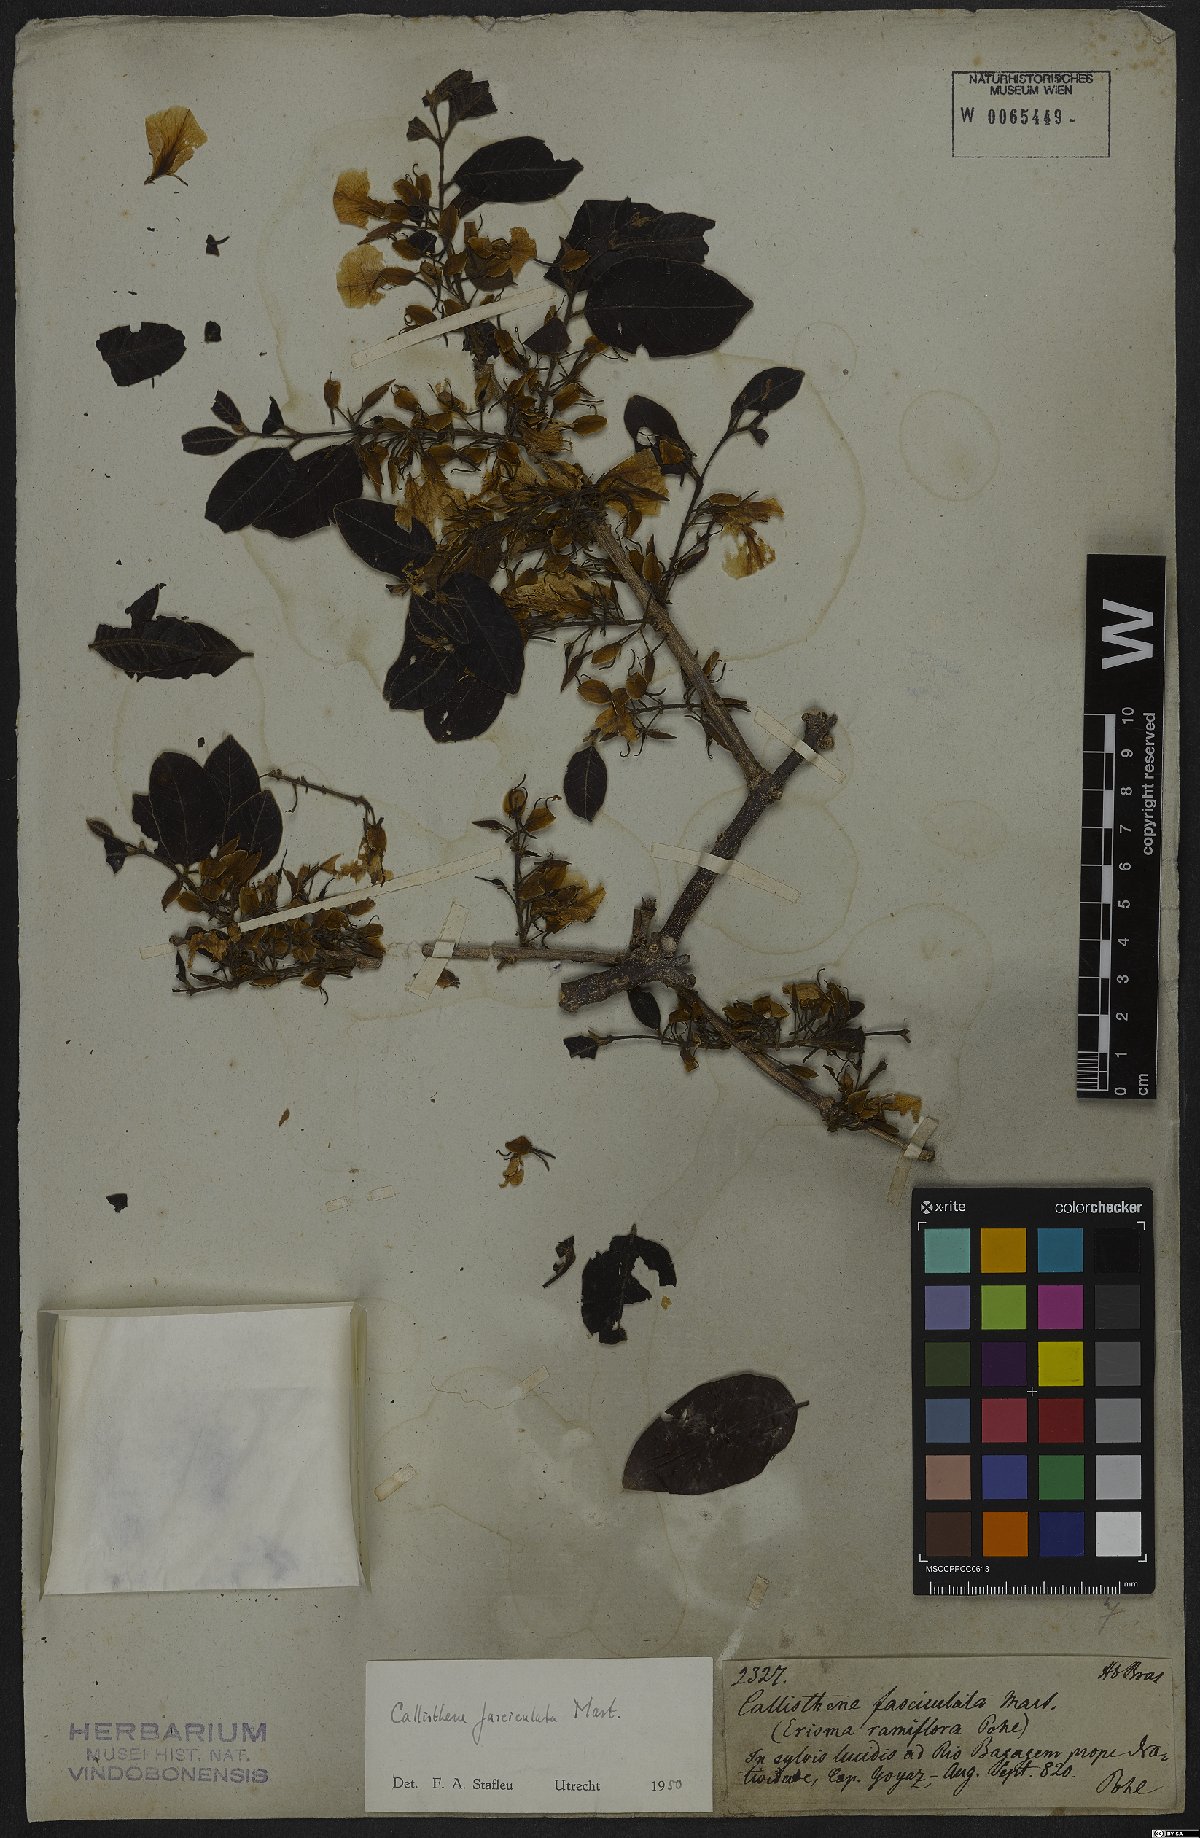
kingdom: Plantae
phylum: Tracheophyta
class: Magnoliopsida
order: Myrtales
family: Vochysiaceae
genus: Callisthene
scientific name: Callisthene fasciculata
